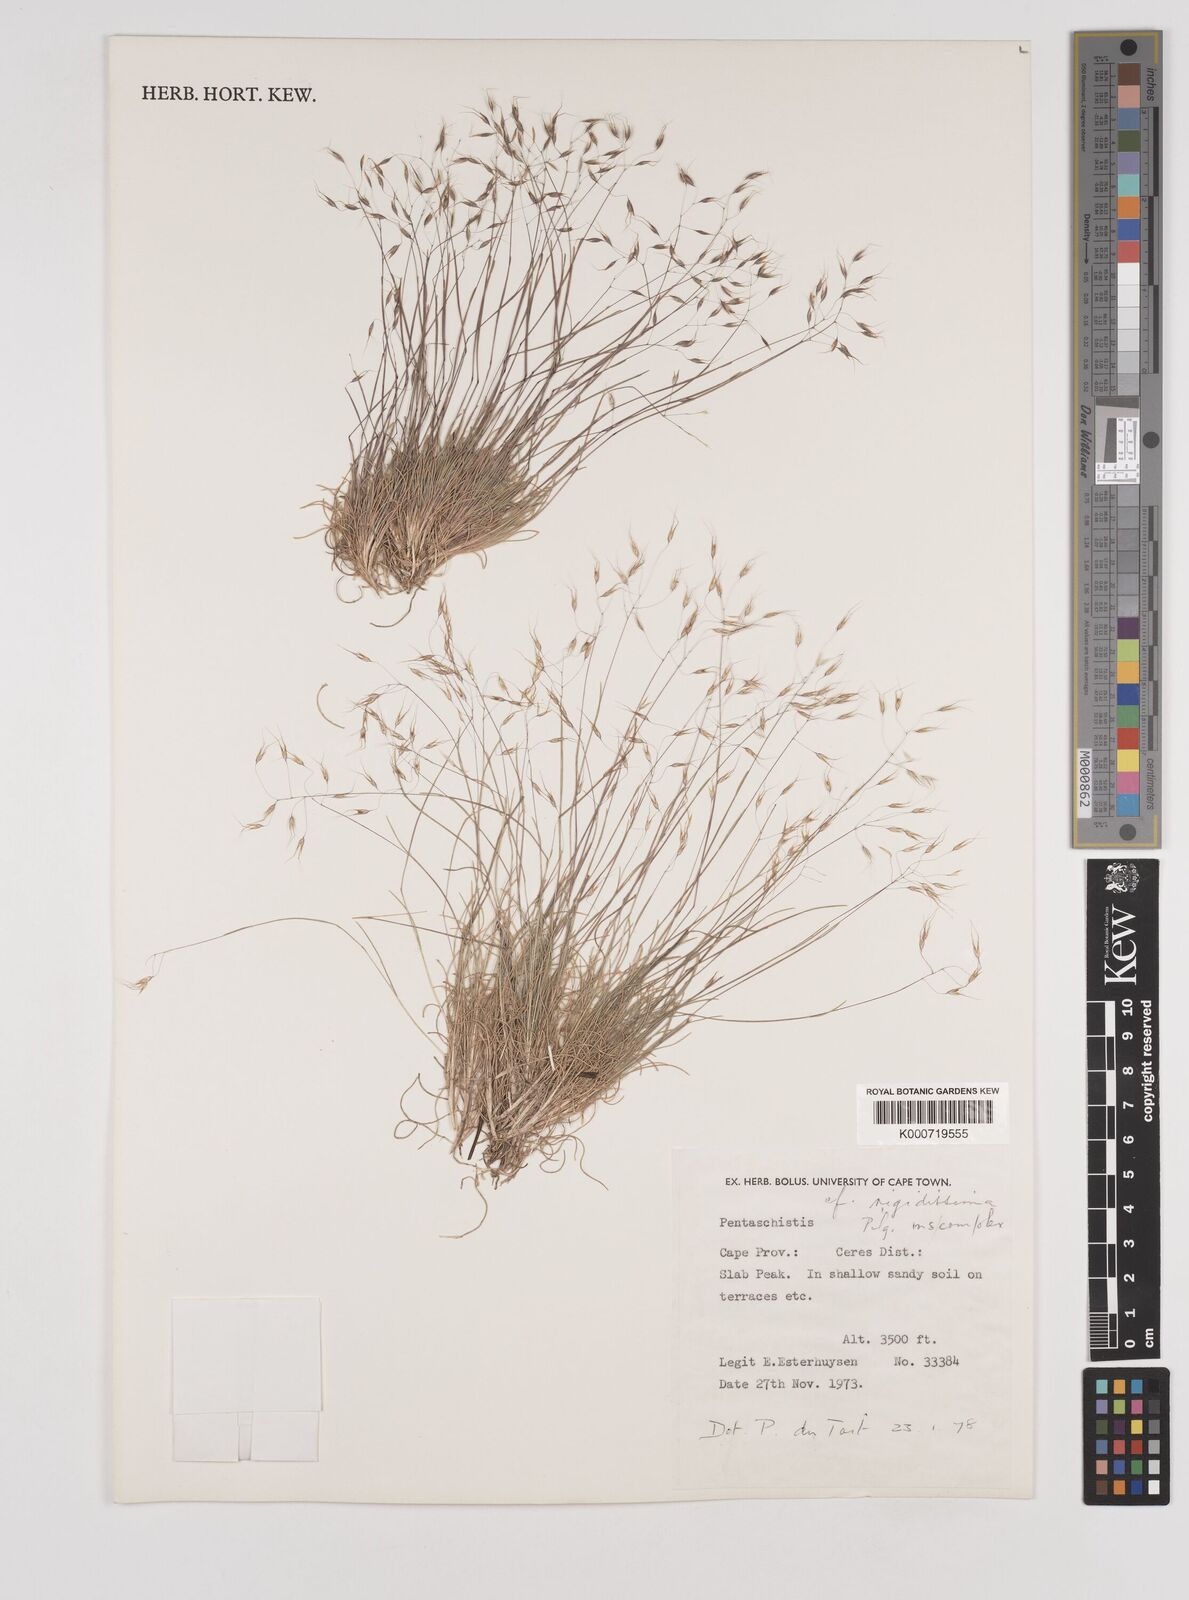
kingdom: Plantae
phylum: Tracheophyta
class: Liliopsida
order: Poales
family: Poaceae
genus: Pentameris
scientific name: Pentameris alticola
